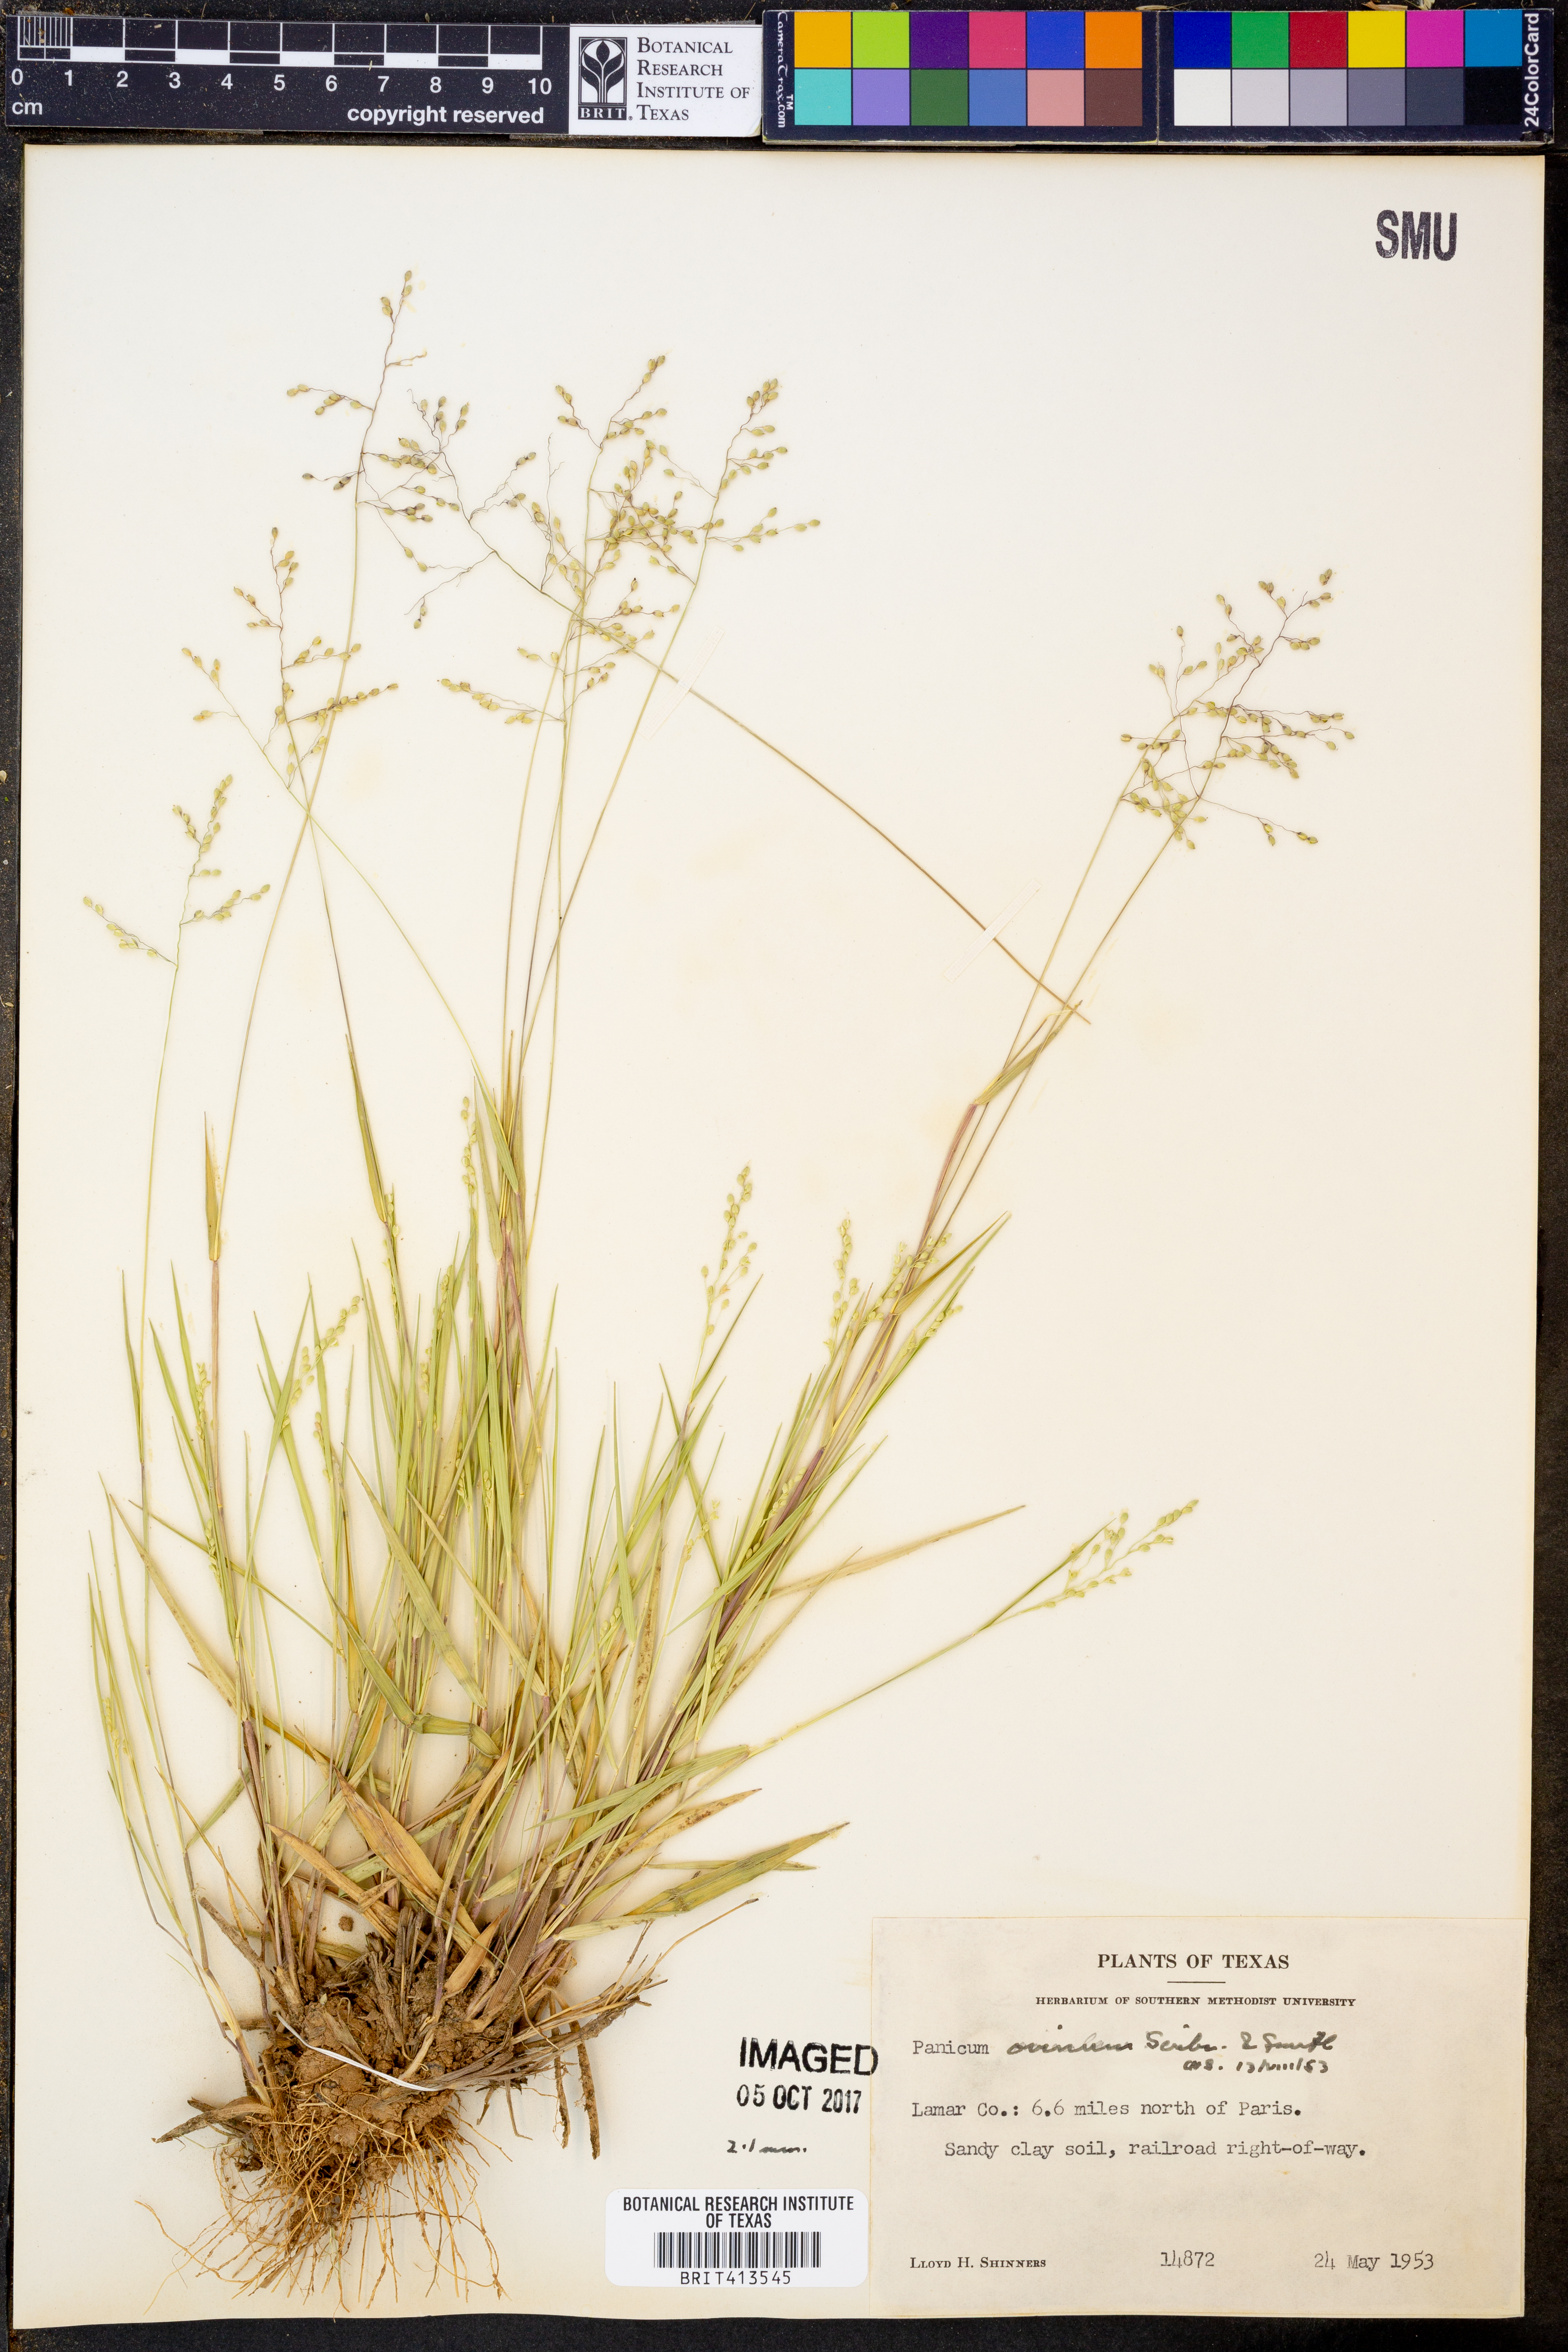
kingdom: Plantae
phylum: Tracheophyta
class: Liliopsida
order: Poales
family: Poaceae
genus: Dichanthelium
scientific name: Dichanthelium ovinum
